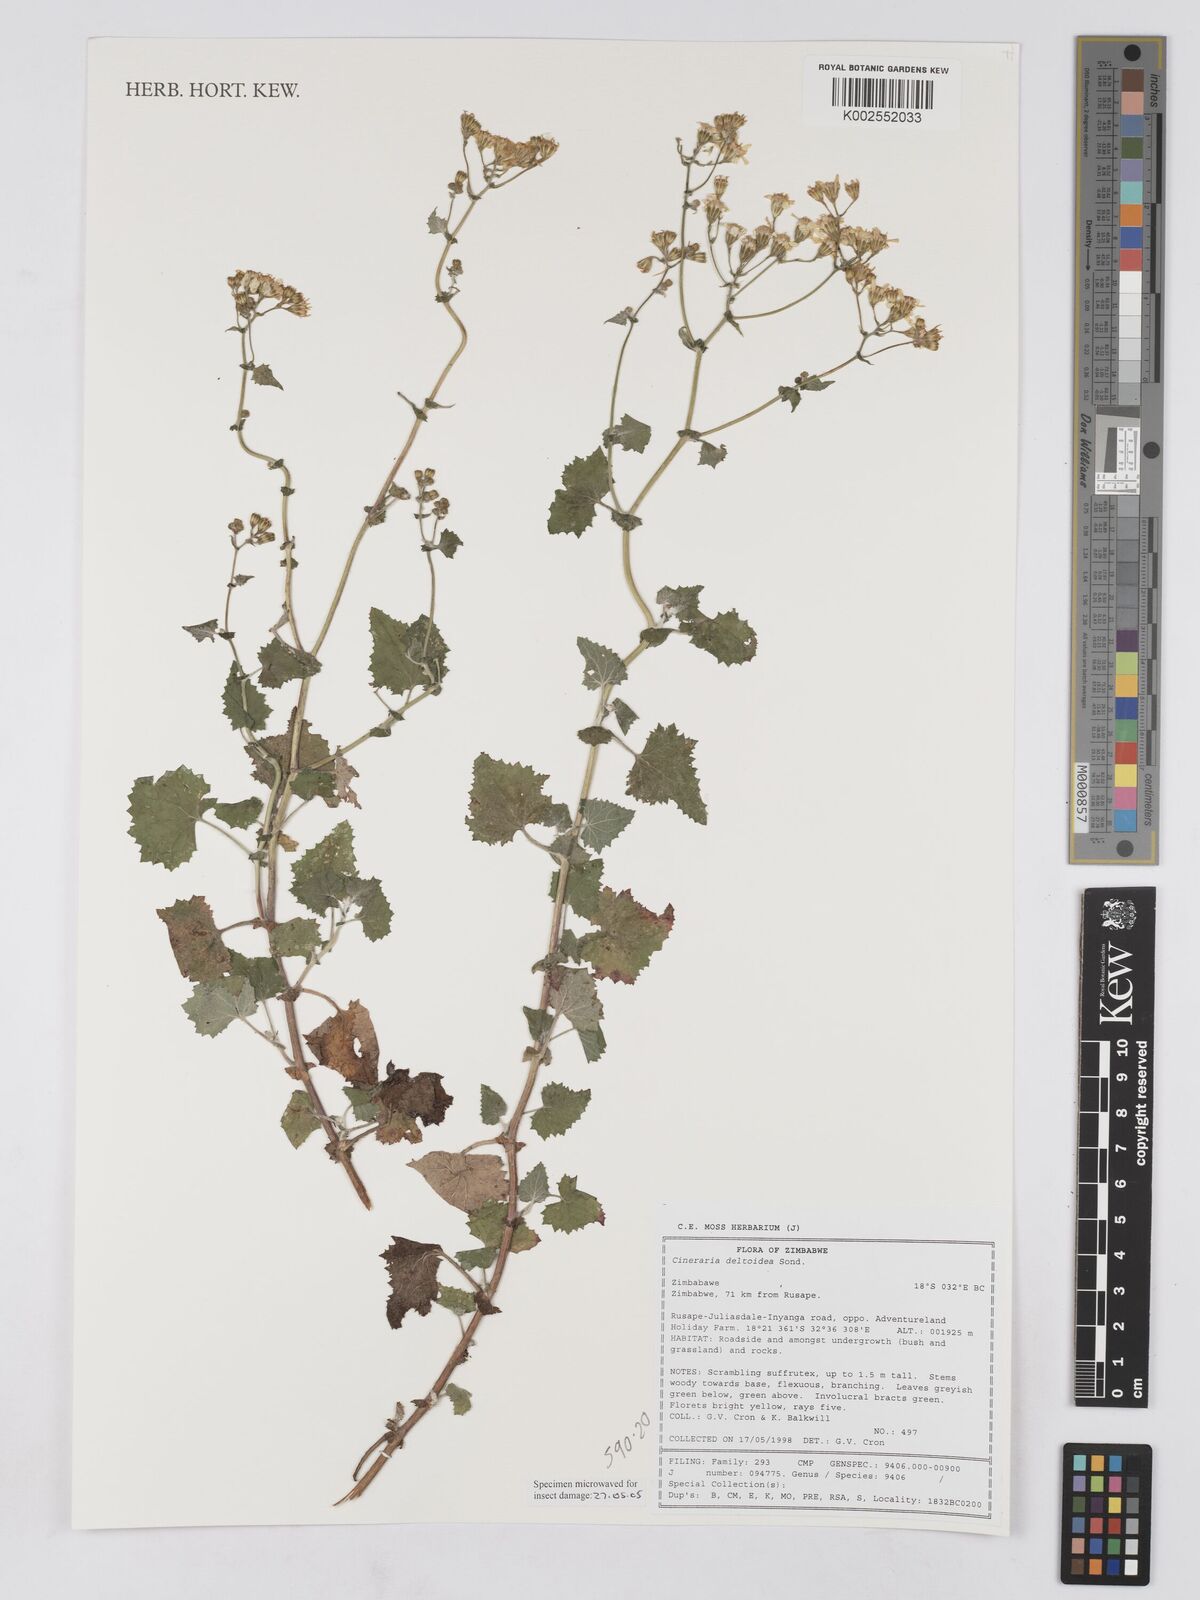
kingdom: Plantae
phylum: Tracheophyta
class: Magnoliopsida
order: Asterales
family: Asteraceae
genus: Cineraria
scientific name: Cineraria deltoidea
